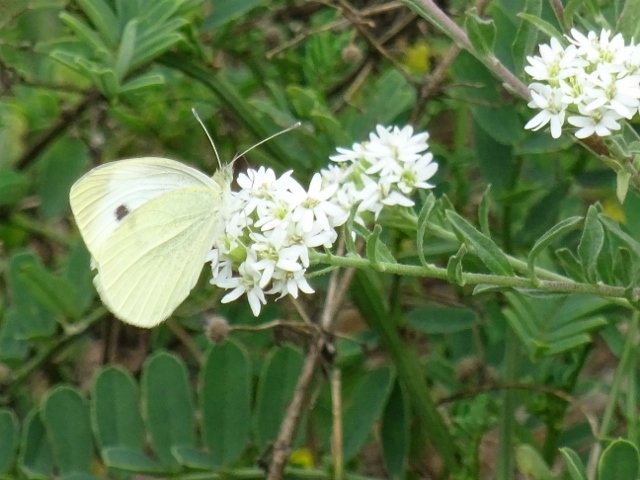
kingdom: Animalia
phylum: Arthropoda
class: Insecta
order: Lepidoptera
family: Pieridae
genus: Pieris
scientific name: Pieris rapae
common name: Cabbage White
